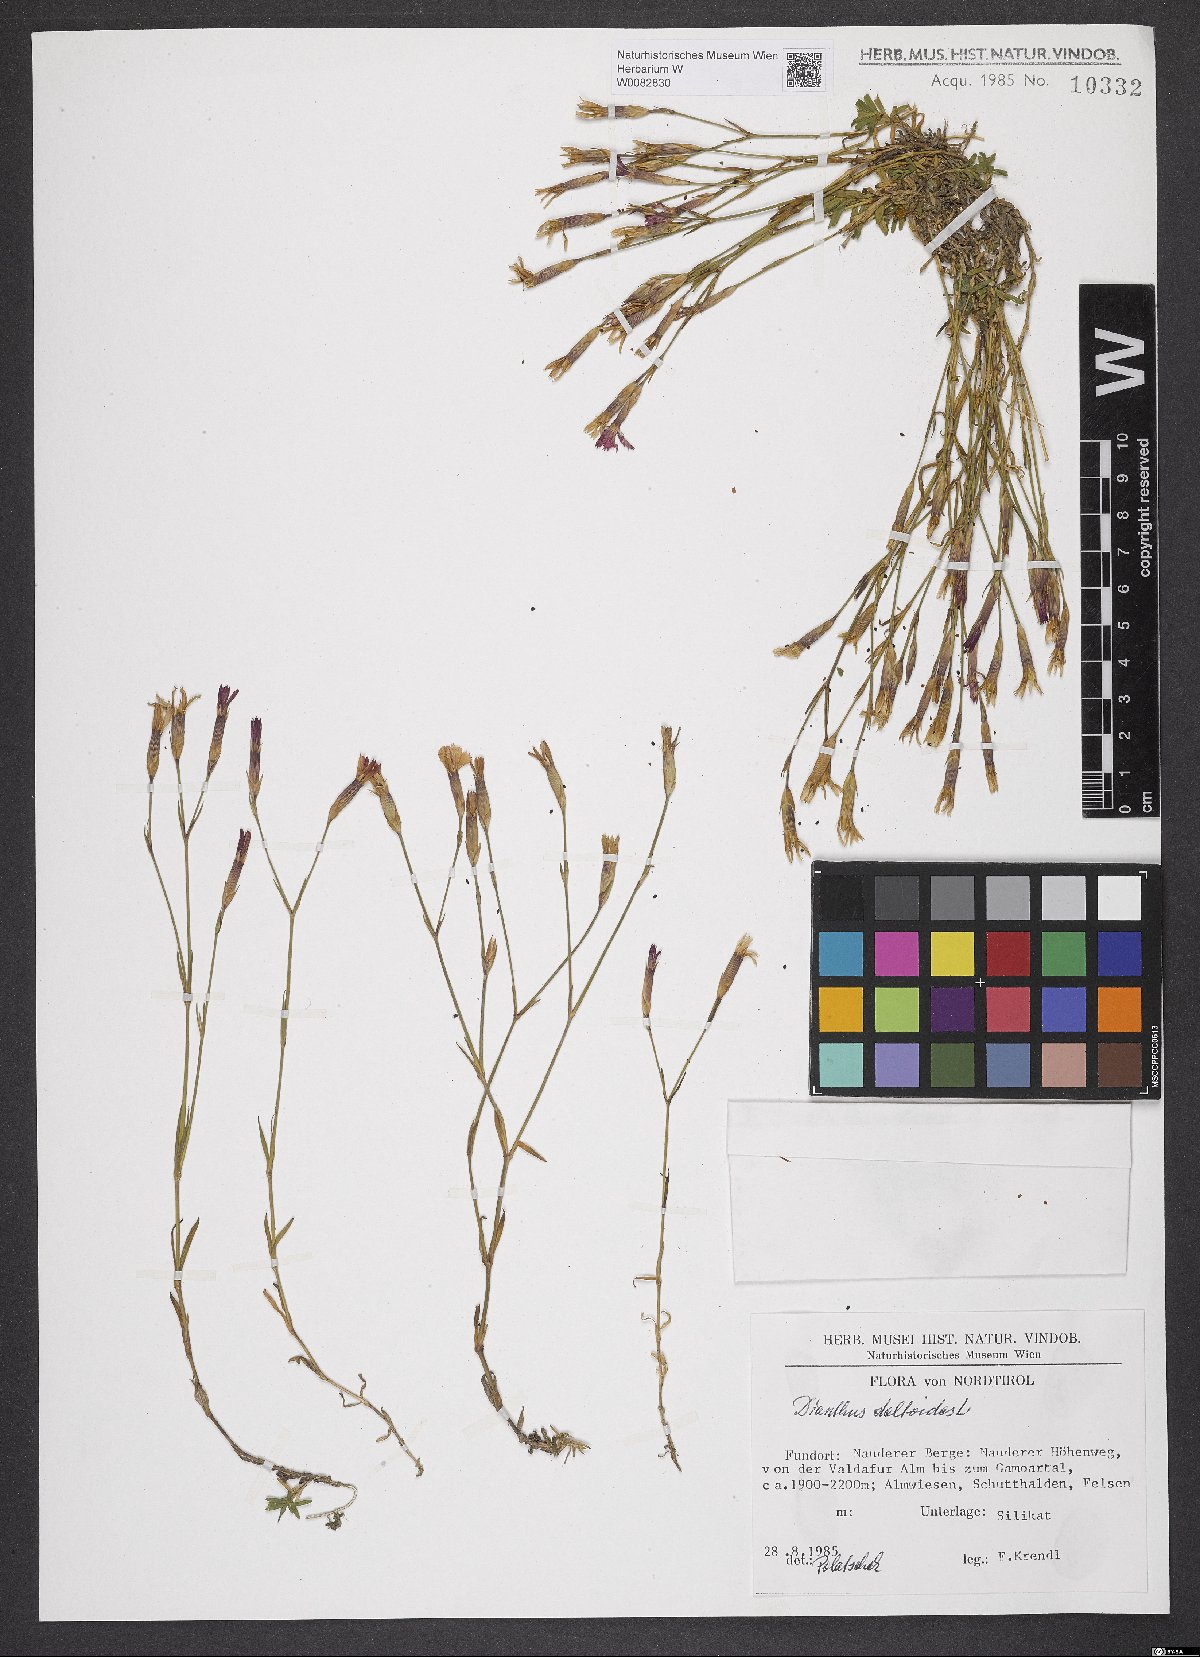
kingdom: Plantae
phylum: Tracheophyta
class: Magnoliopsida
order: Caryophyllales
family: Caryophyllaceae
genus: Dianthus
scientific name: Dianthus deltoides
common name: Maiden pink
